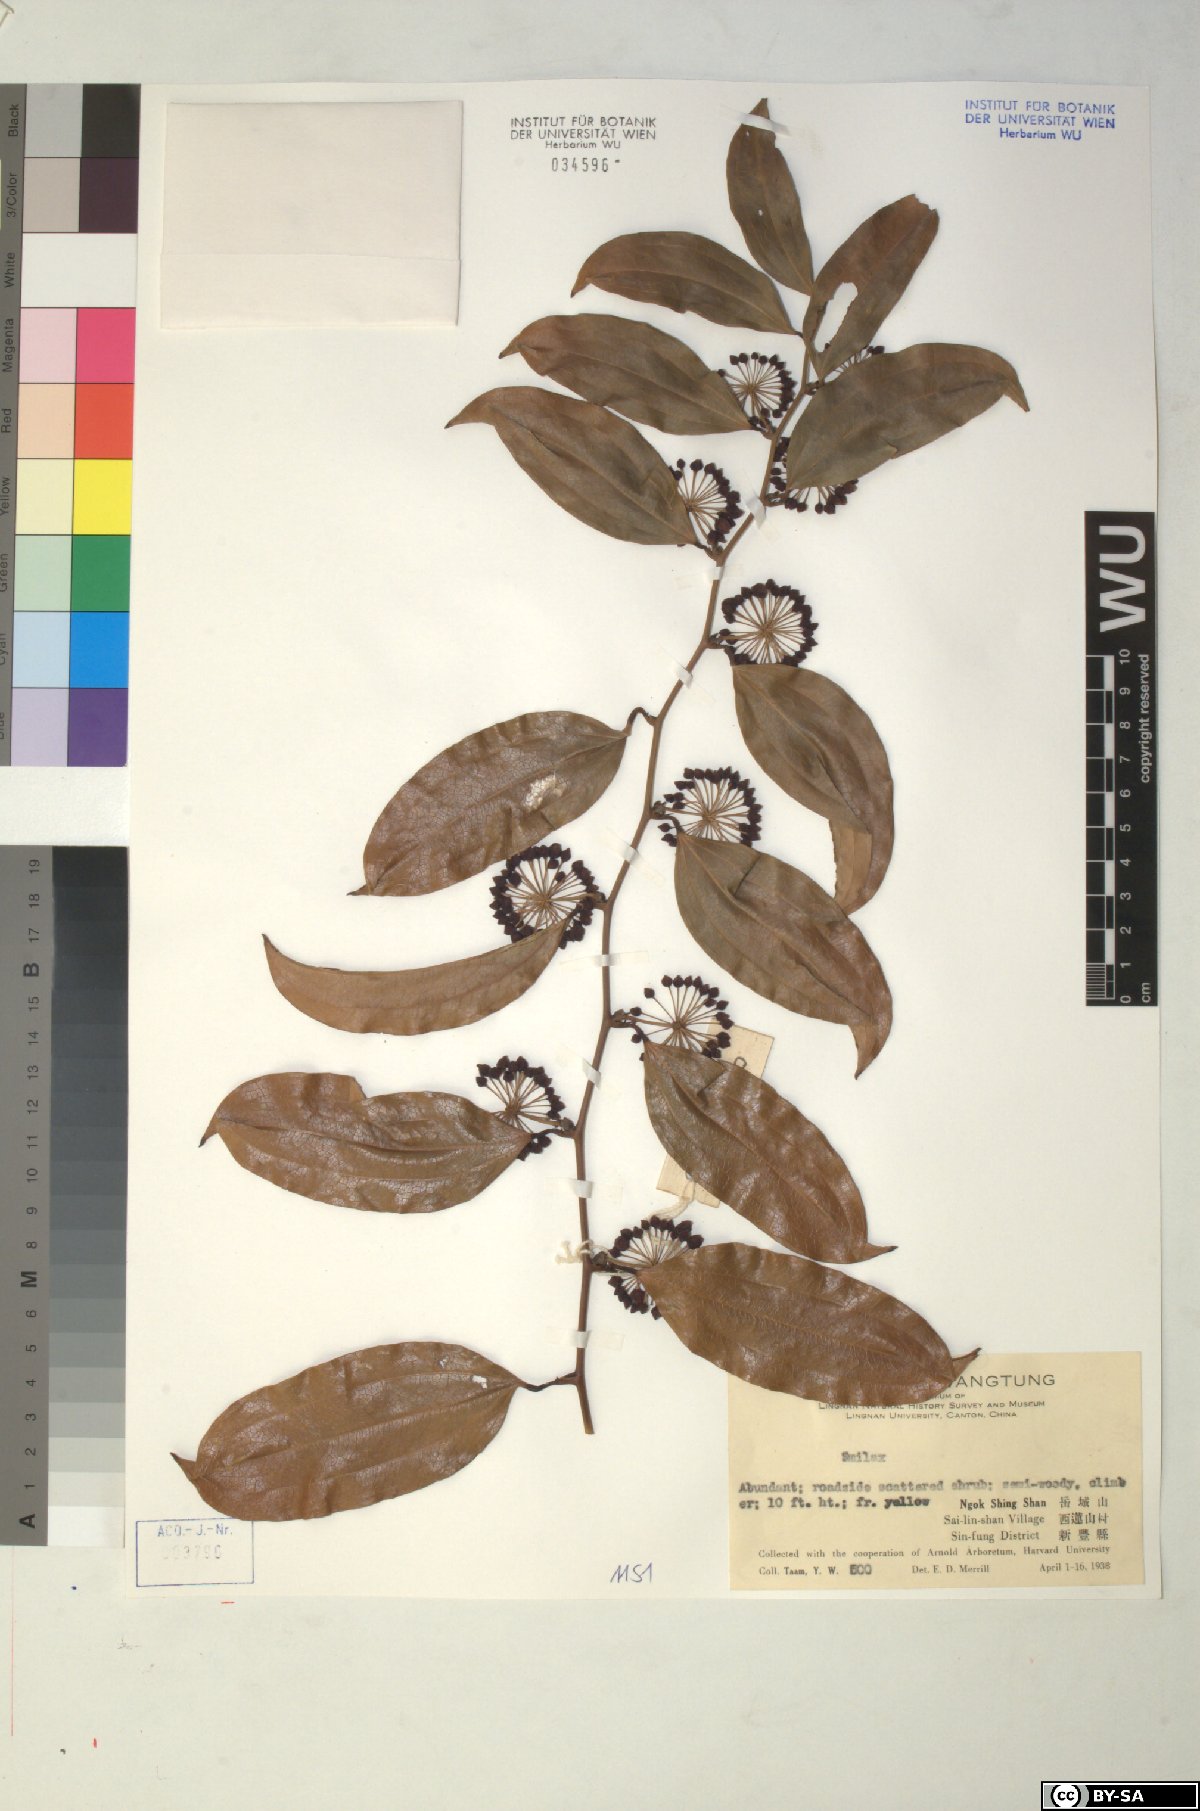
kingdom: Plantae
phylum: Tracheophyta
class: Liliopsida
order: Liliales
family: Smilacaceae
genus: Smilax
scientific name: Smilax
